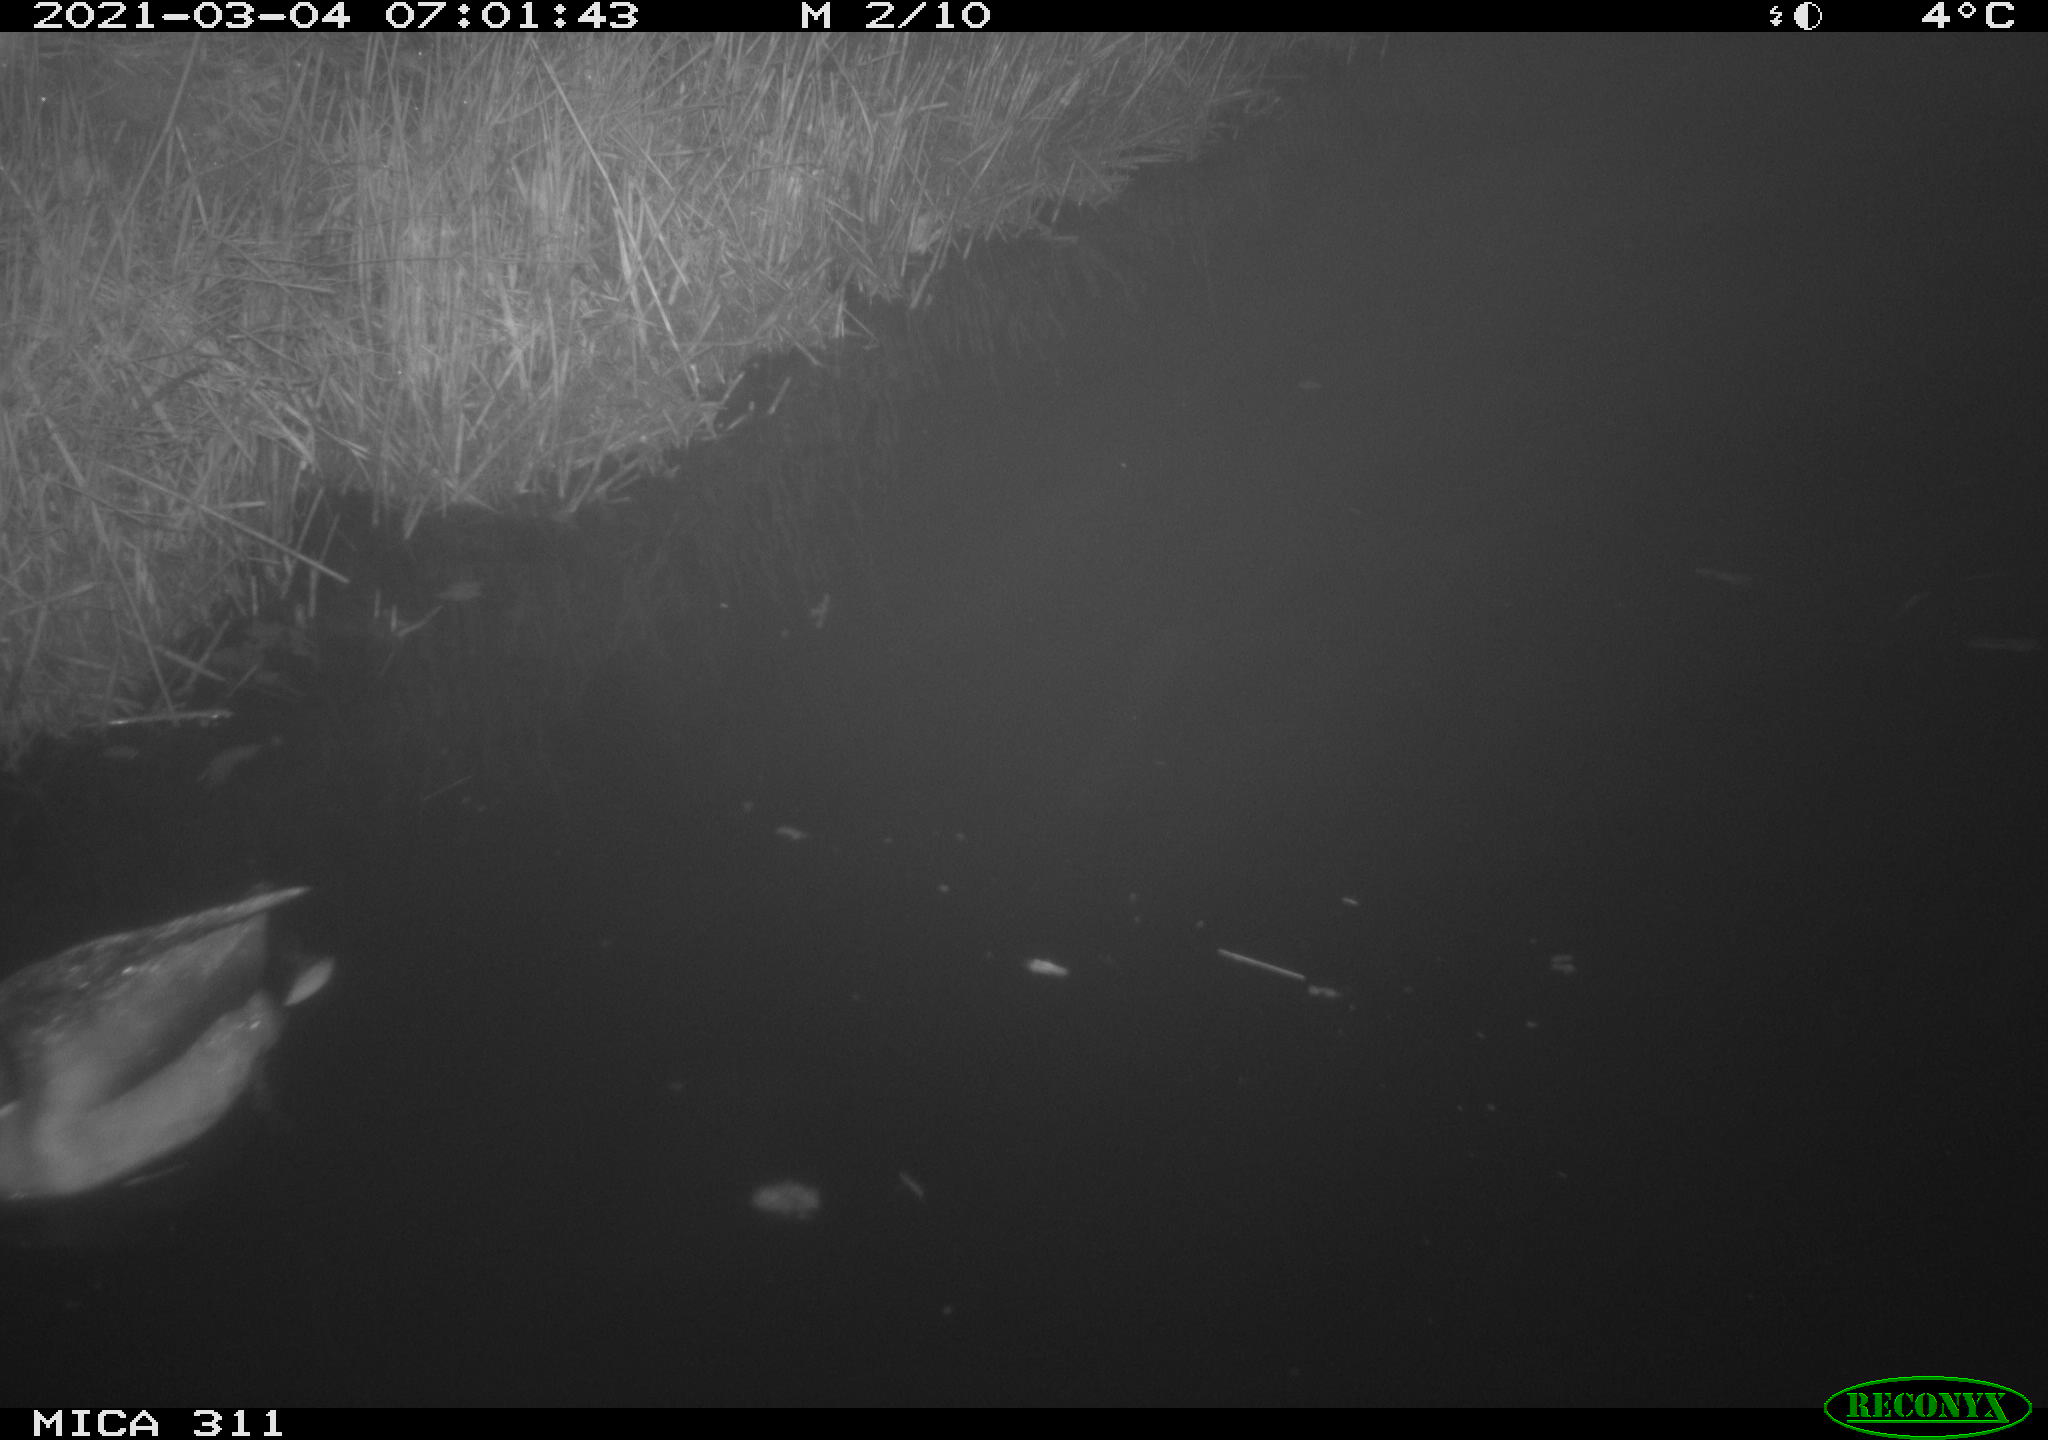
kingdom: Animalia
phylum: Chordata
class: Aves
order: Anseriformes
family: Anatidae
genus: Anas
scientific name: Anas platyrhynchos
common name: Mallard
